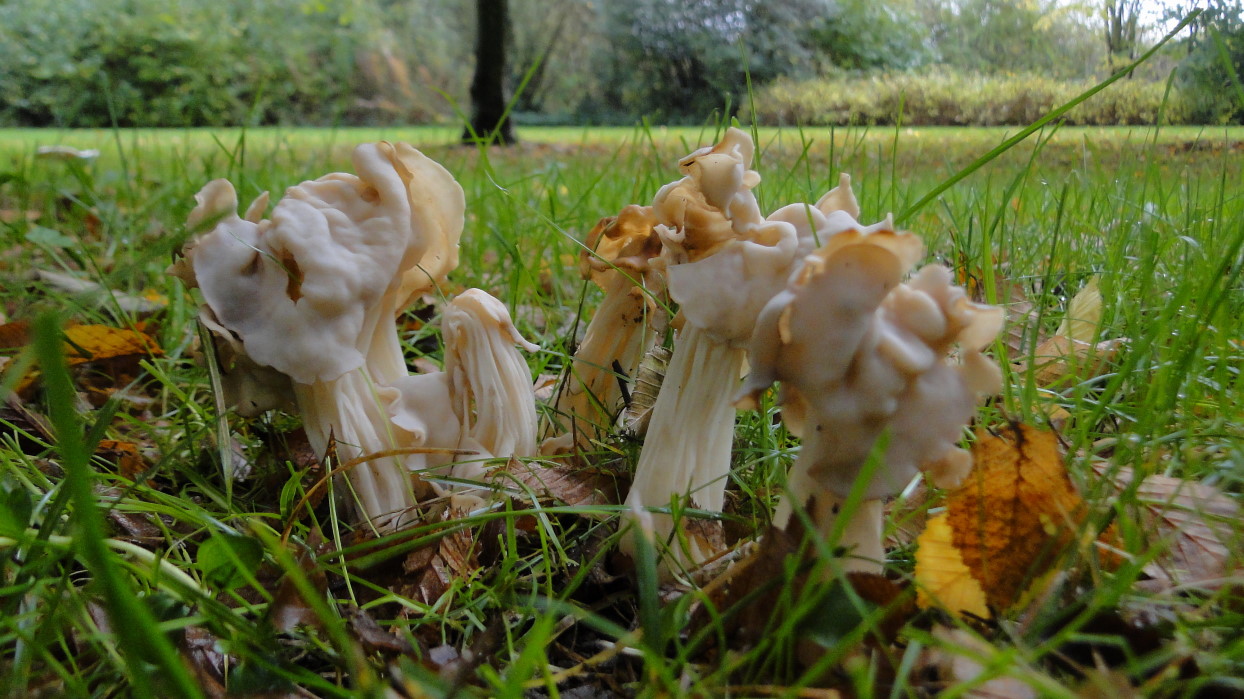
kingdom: Fungi
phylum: Ascomycota
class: Pezizomycetes
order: Pezizales
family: Helvellaceae
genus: Helvella
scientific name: Helvella crispa
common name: kruset foldhat
